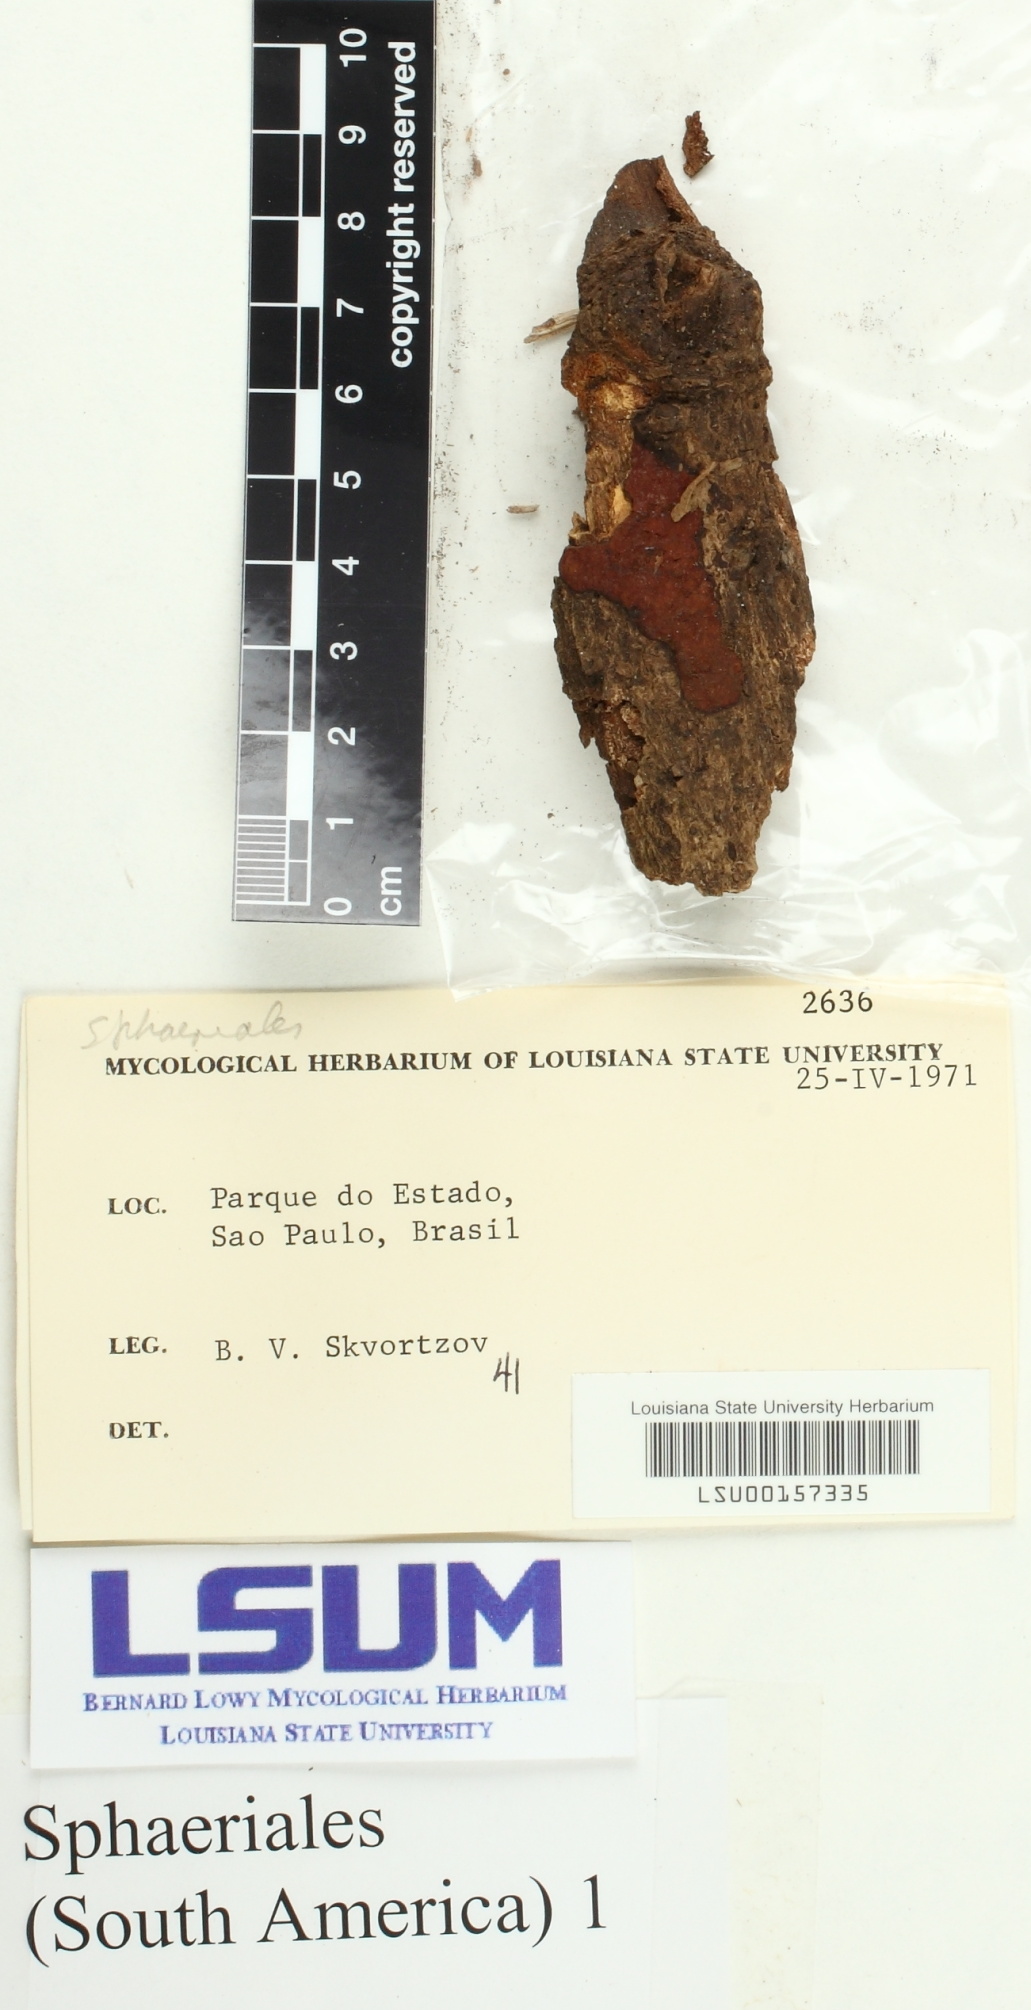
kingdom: Fungi
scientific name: Fungi
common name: Fungi
